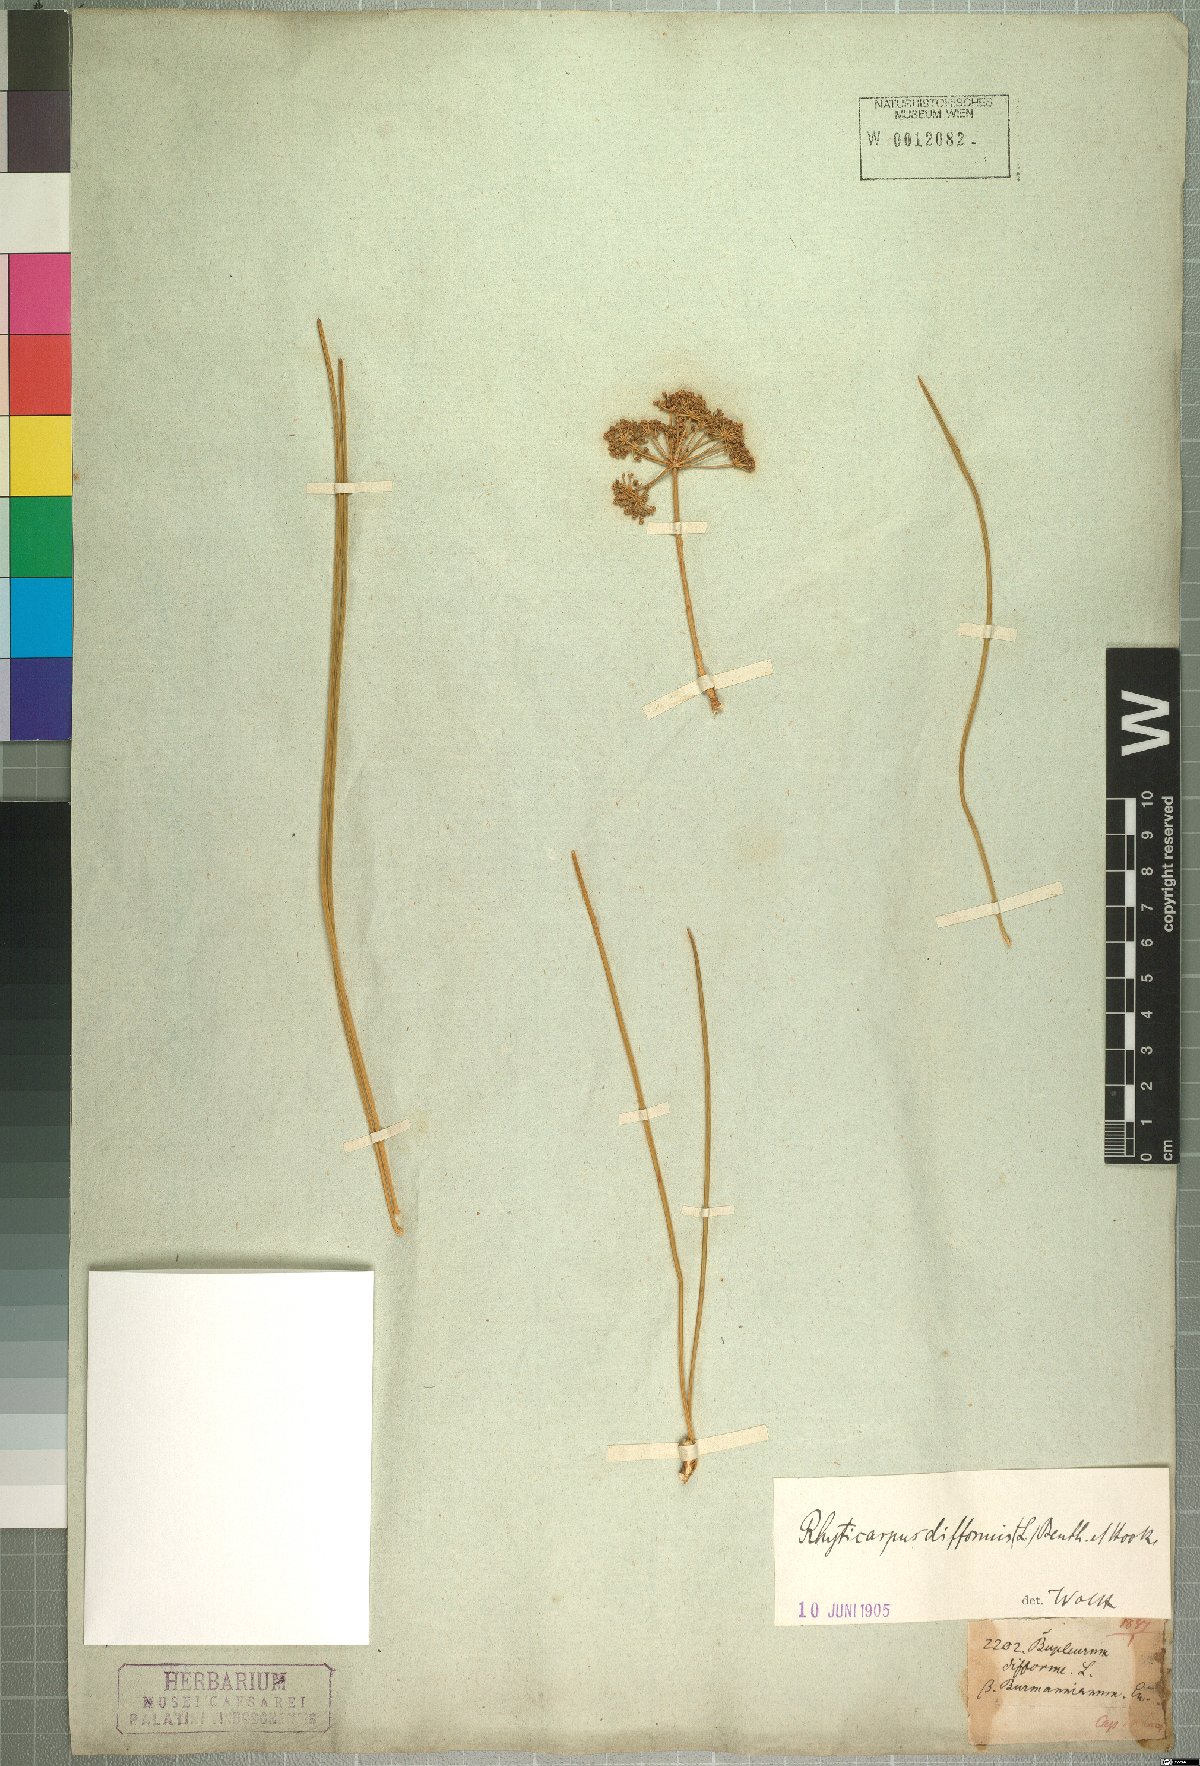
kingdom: Plantae
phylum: Tracheophyta
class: Magnoliopsida
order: Apiales
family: Apiaceae
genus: Anginon
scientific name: Anginon difforme
